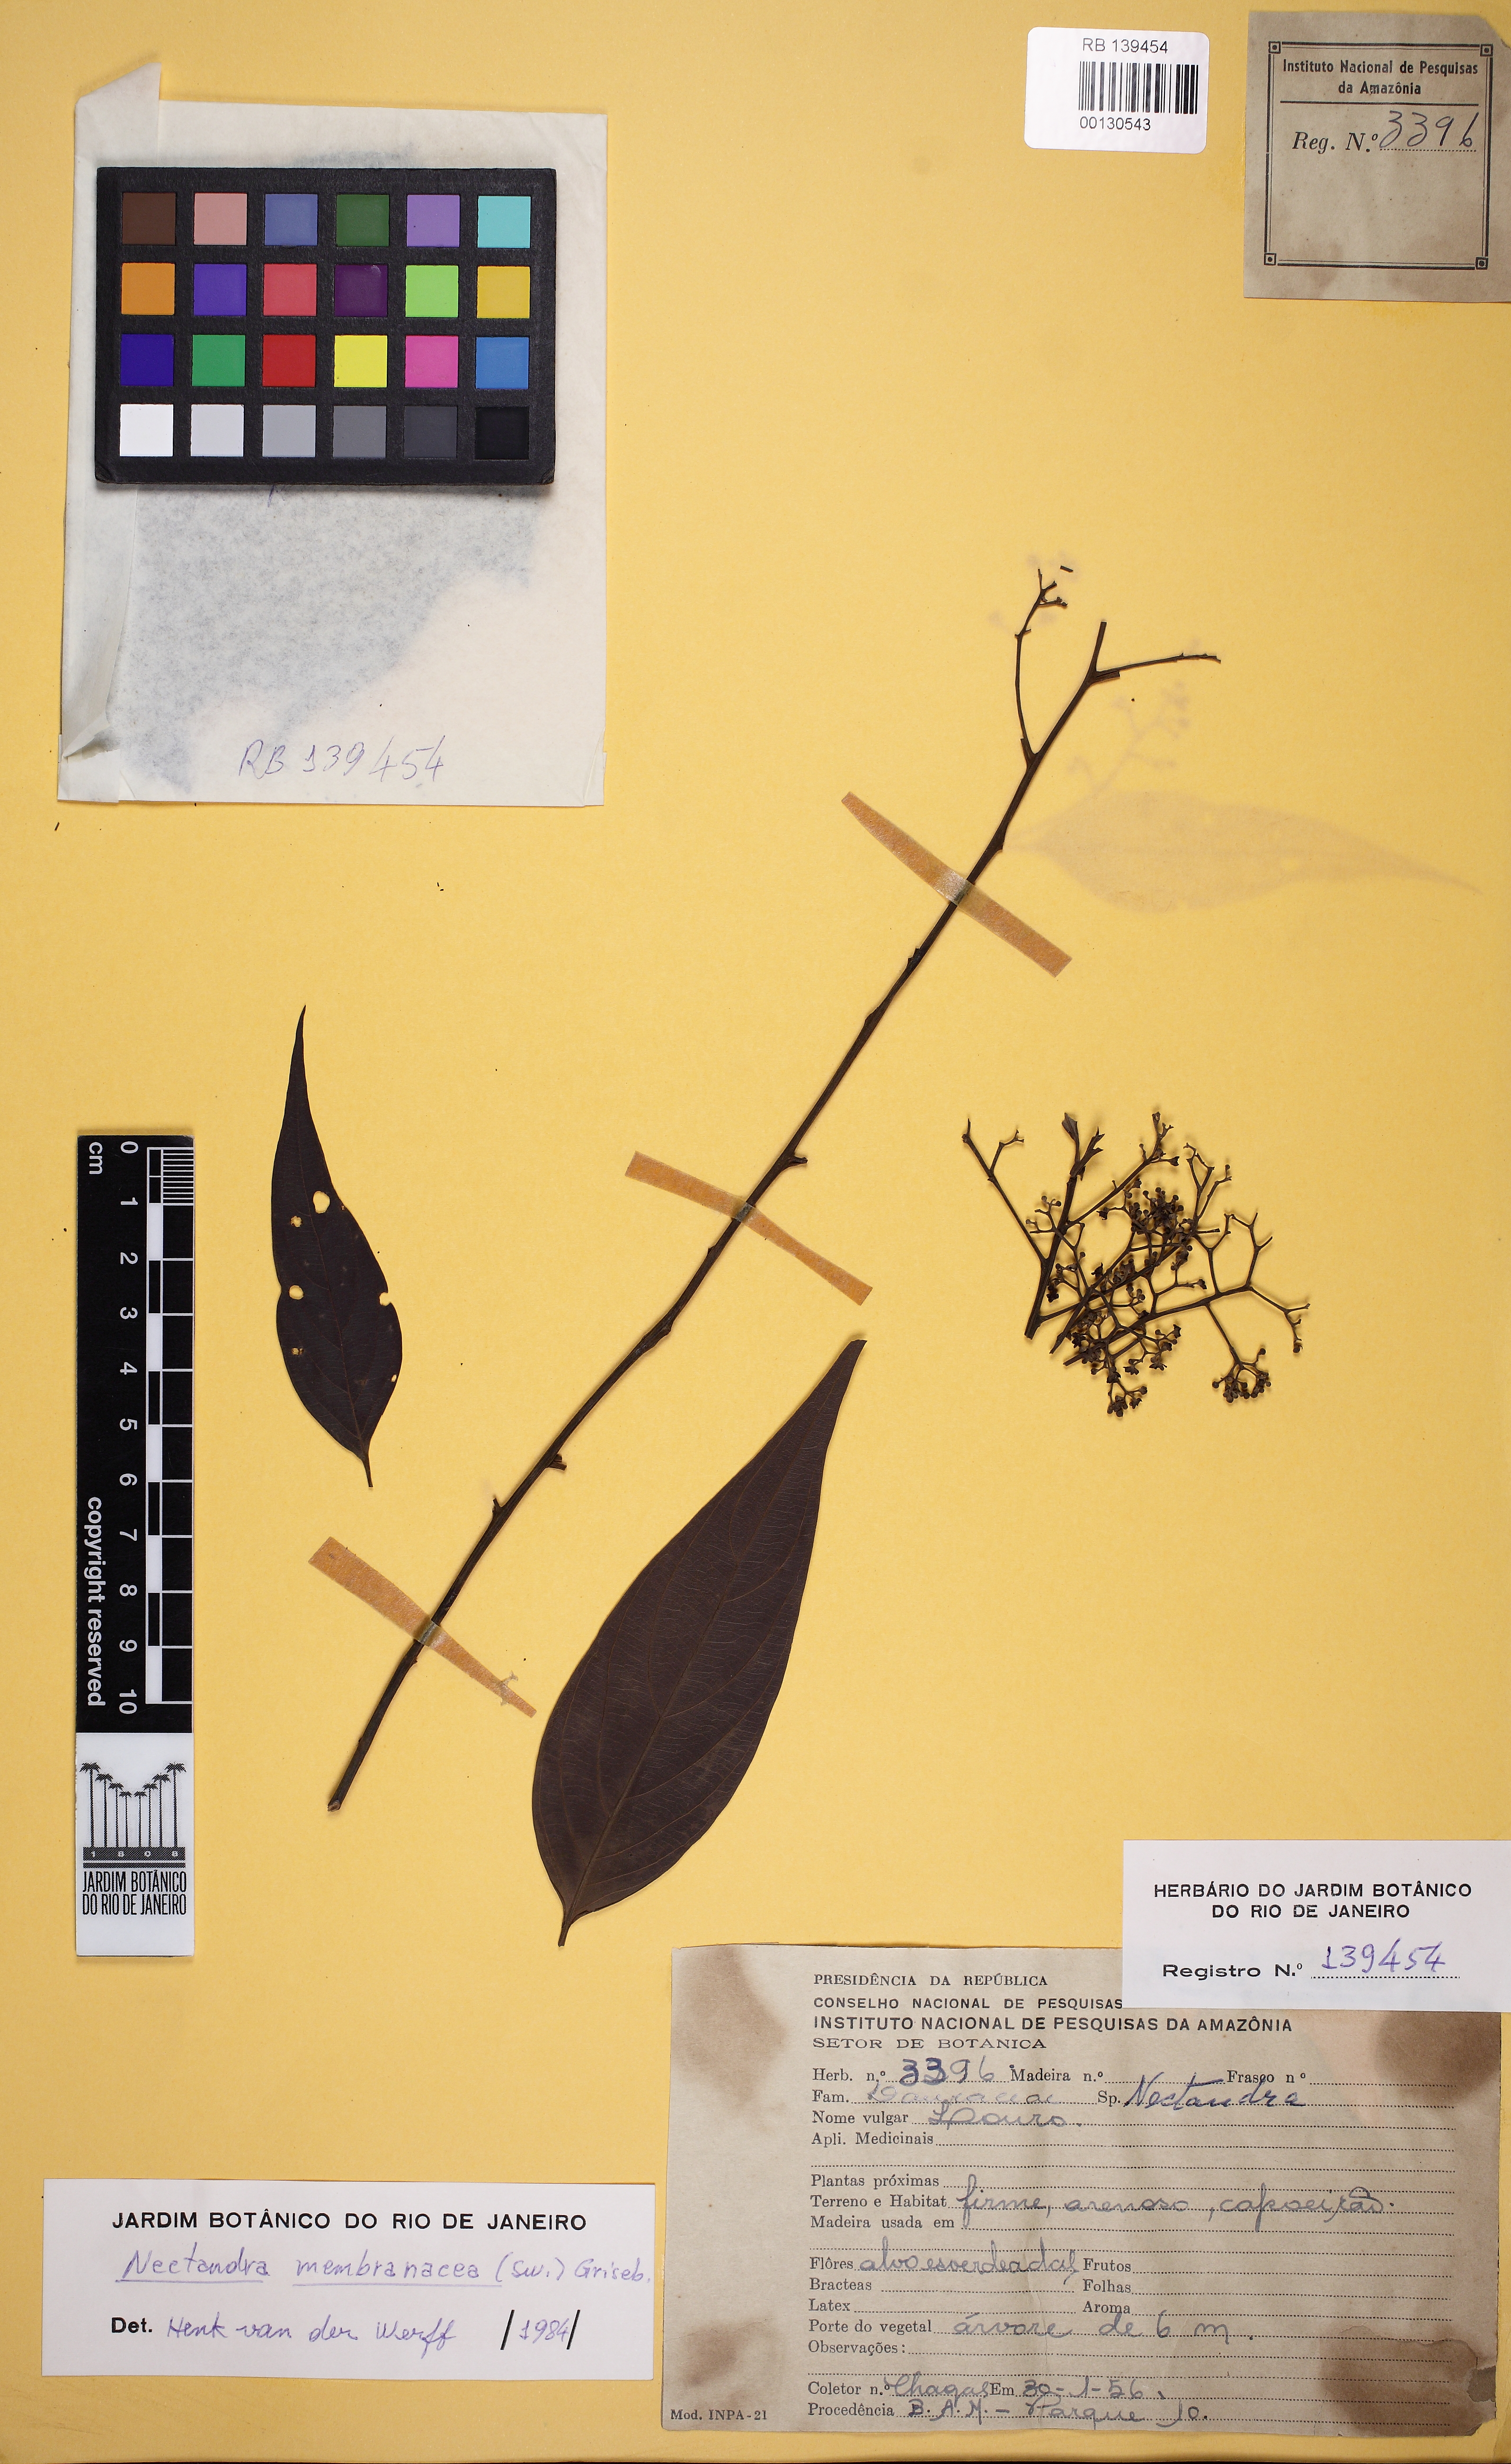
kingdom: Plantae
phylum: Tracheophyta
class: Magnoliopsida
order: Laurales
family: Lauraceae
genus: Nectandra
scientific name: Nectandra membranacea
